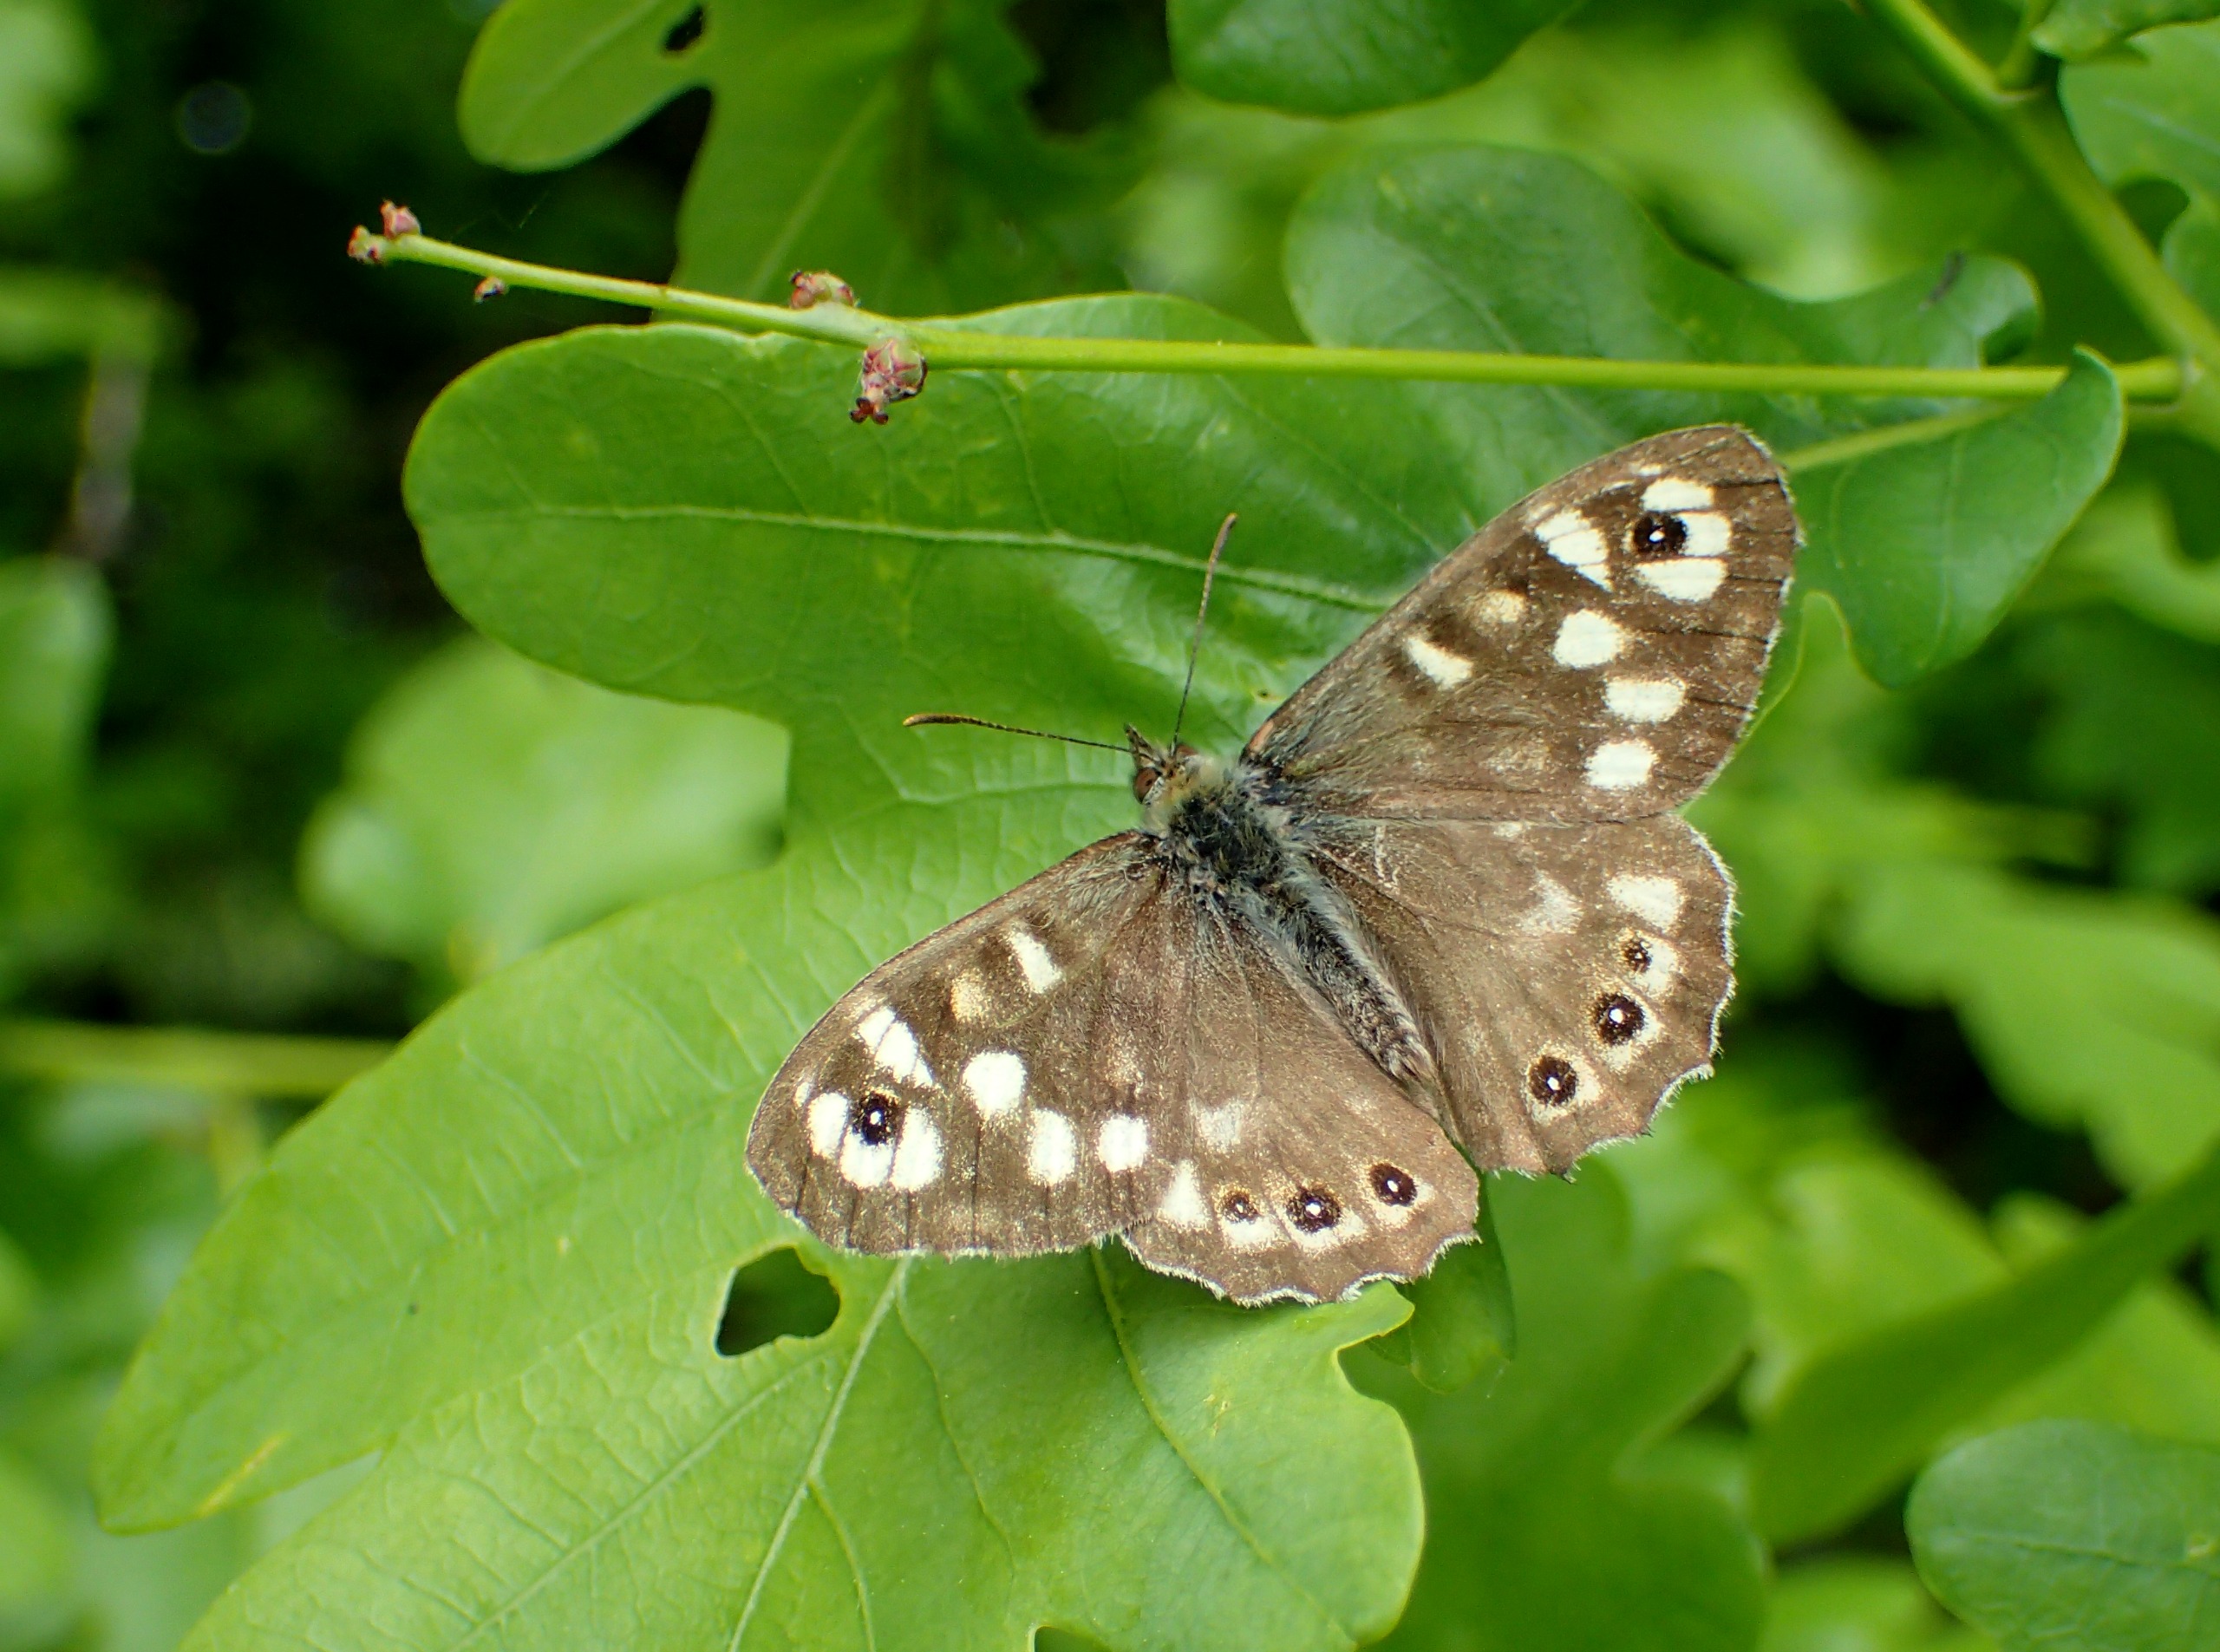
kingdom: Animalia
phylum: Arthropoda
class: Insecta
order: Lepidoptera
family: Nymphalidae
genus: Pararge
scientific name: Pararge aegeria
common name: Skovrandøje
